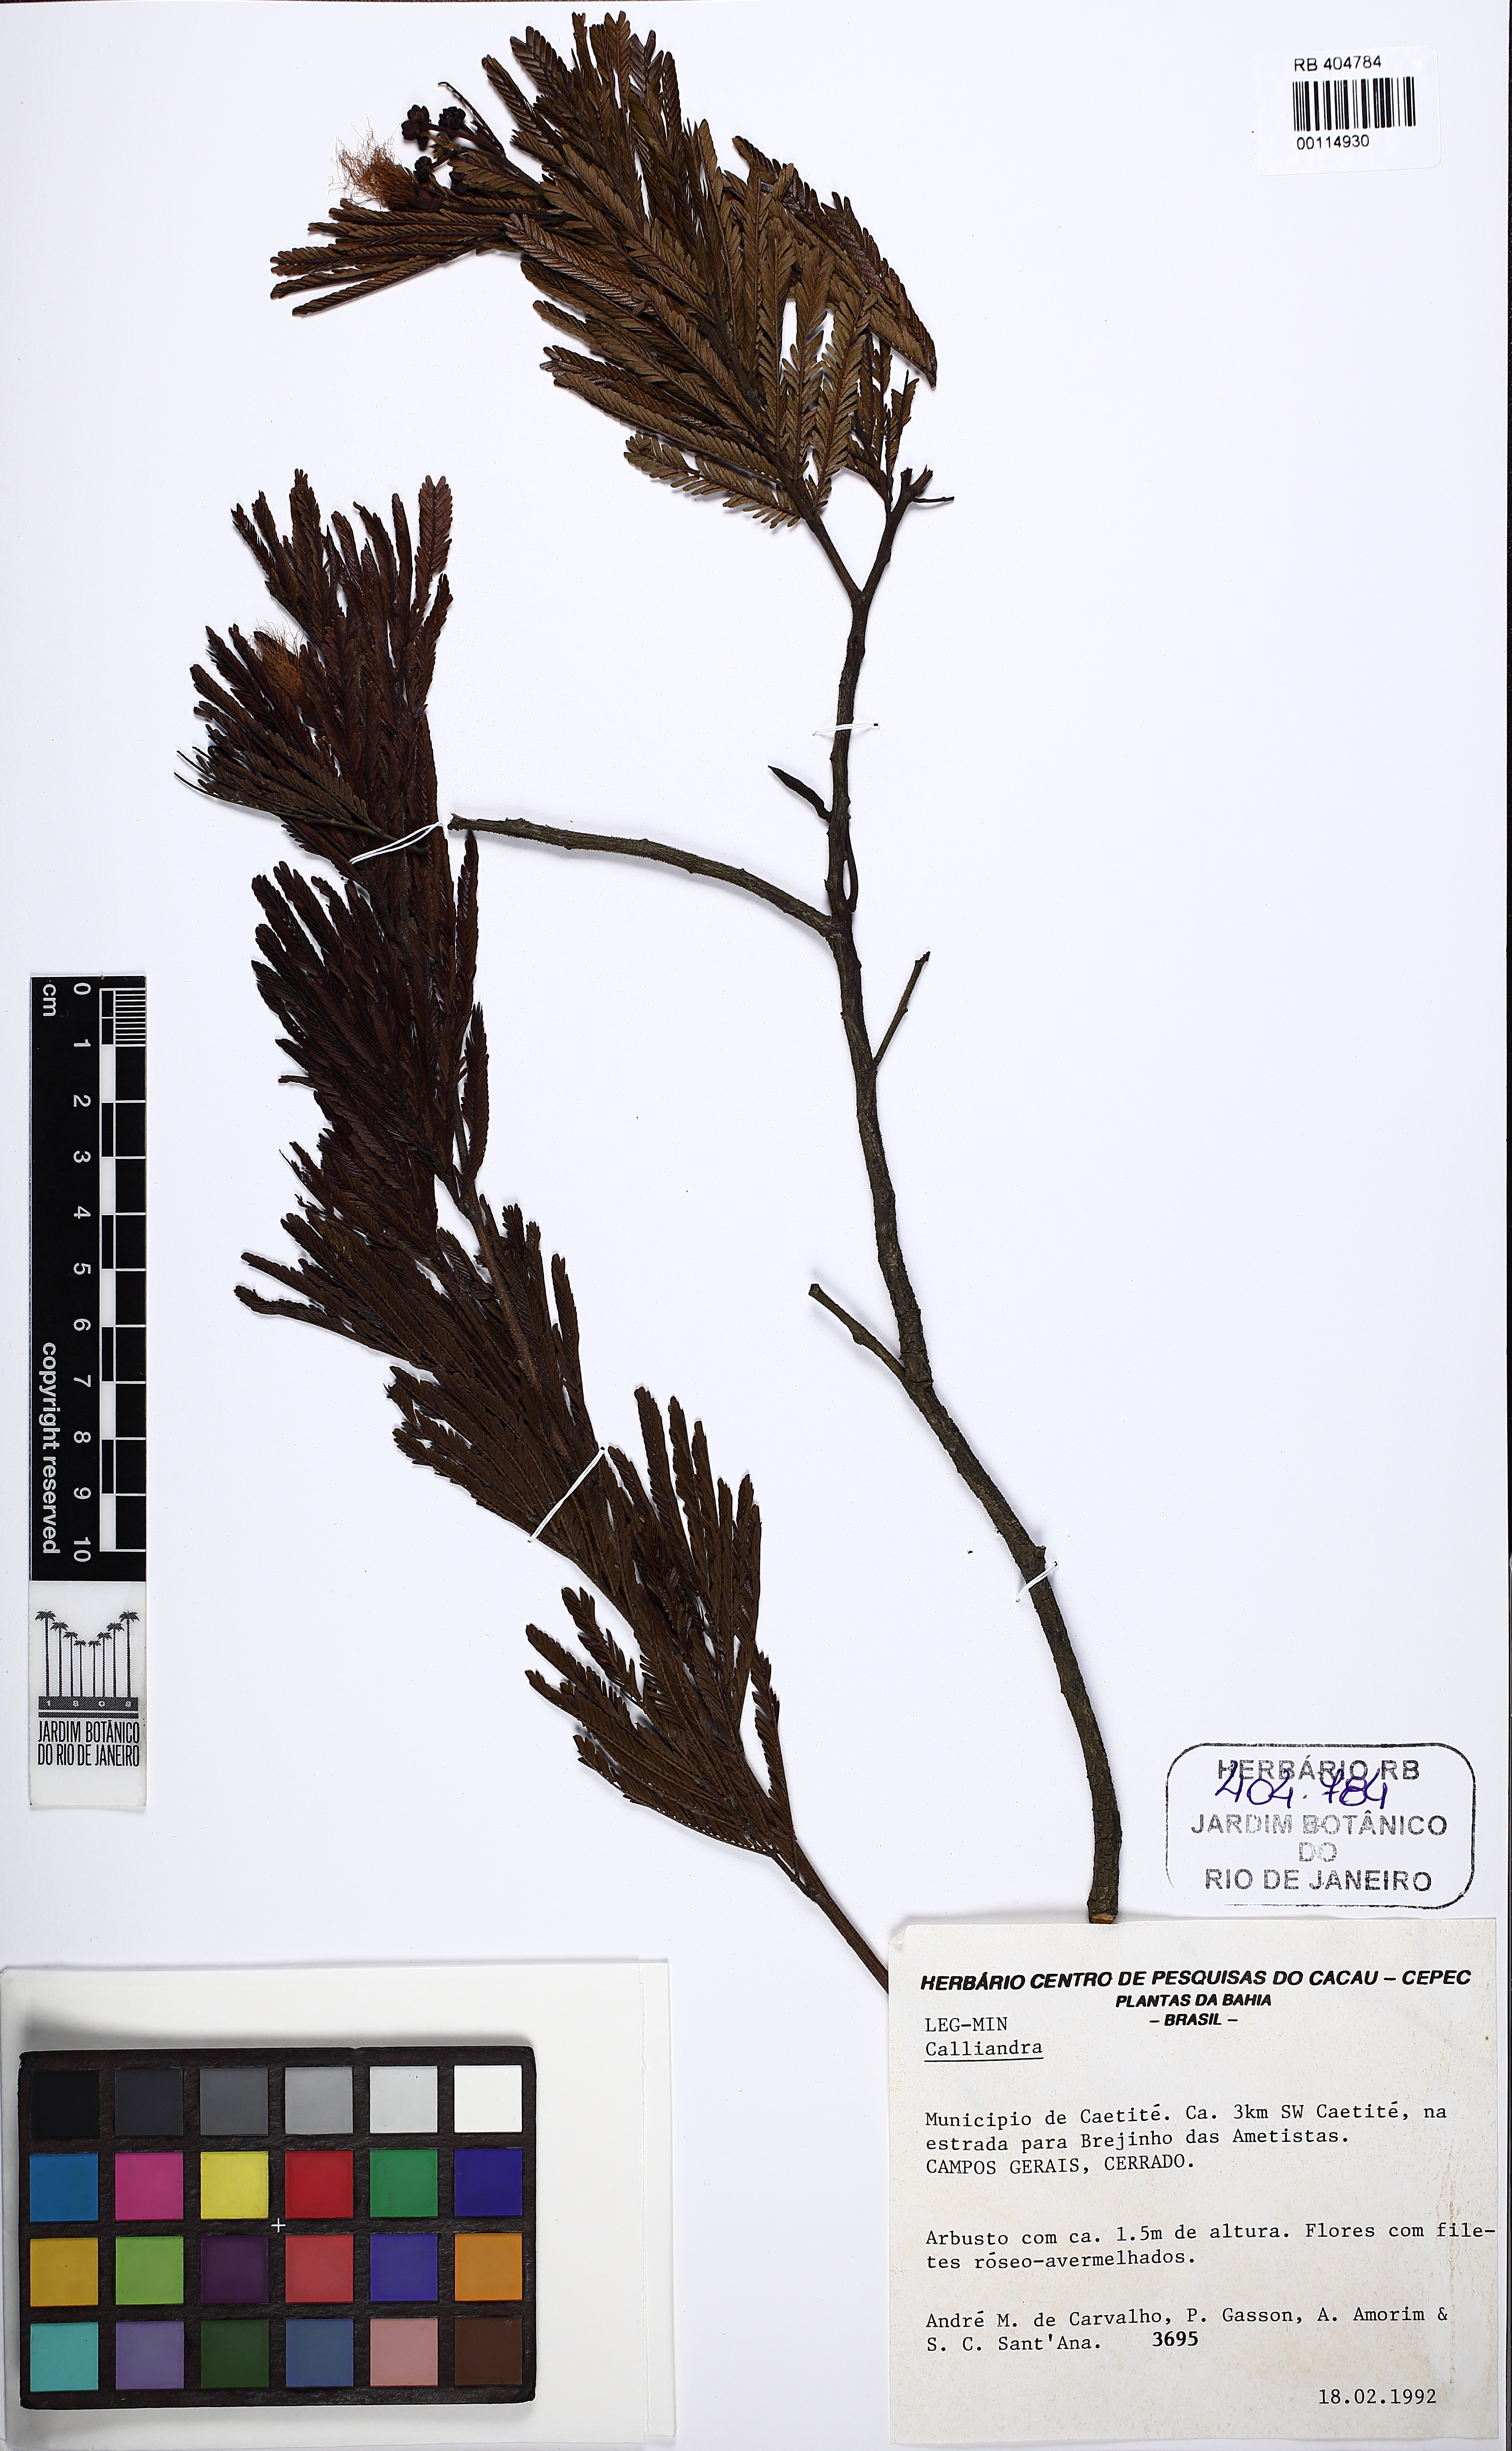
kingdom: Plantae
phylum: Tracheophyta
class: Magnoliopsida
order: Fabales
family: Fabaceae
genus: Calliandra
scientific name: Calliandra
